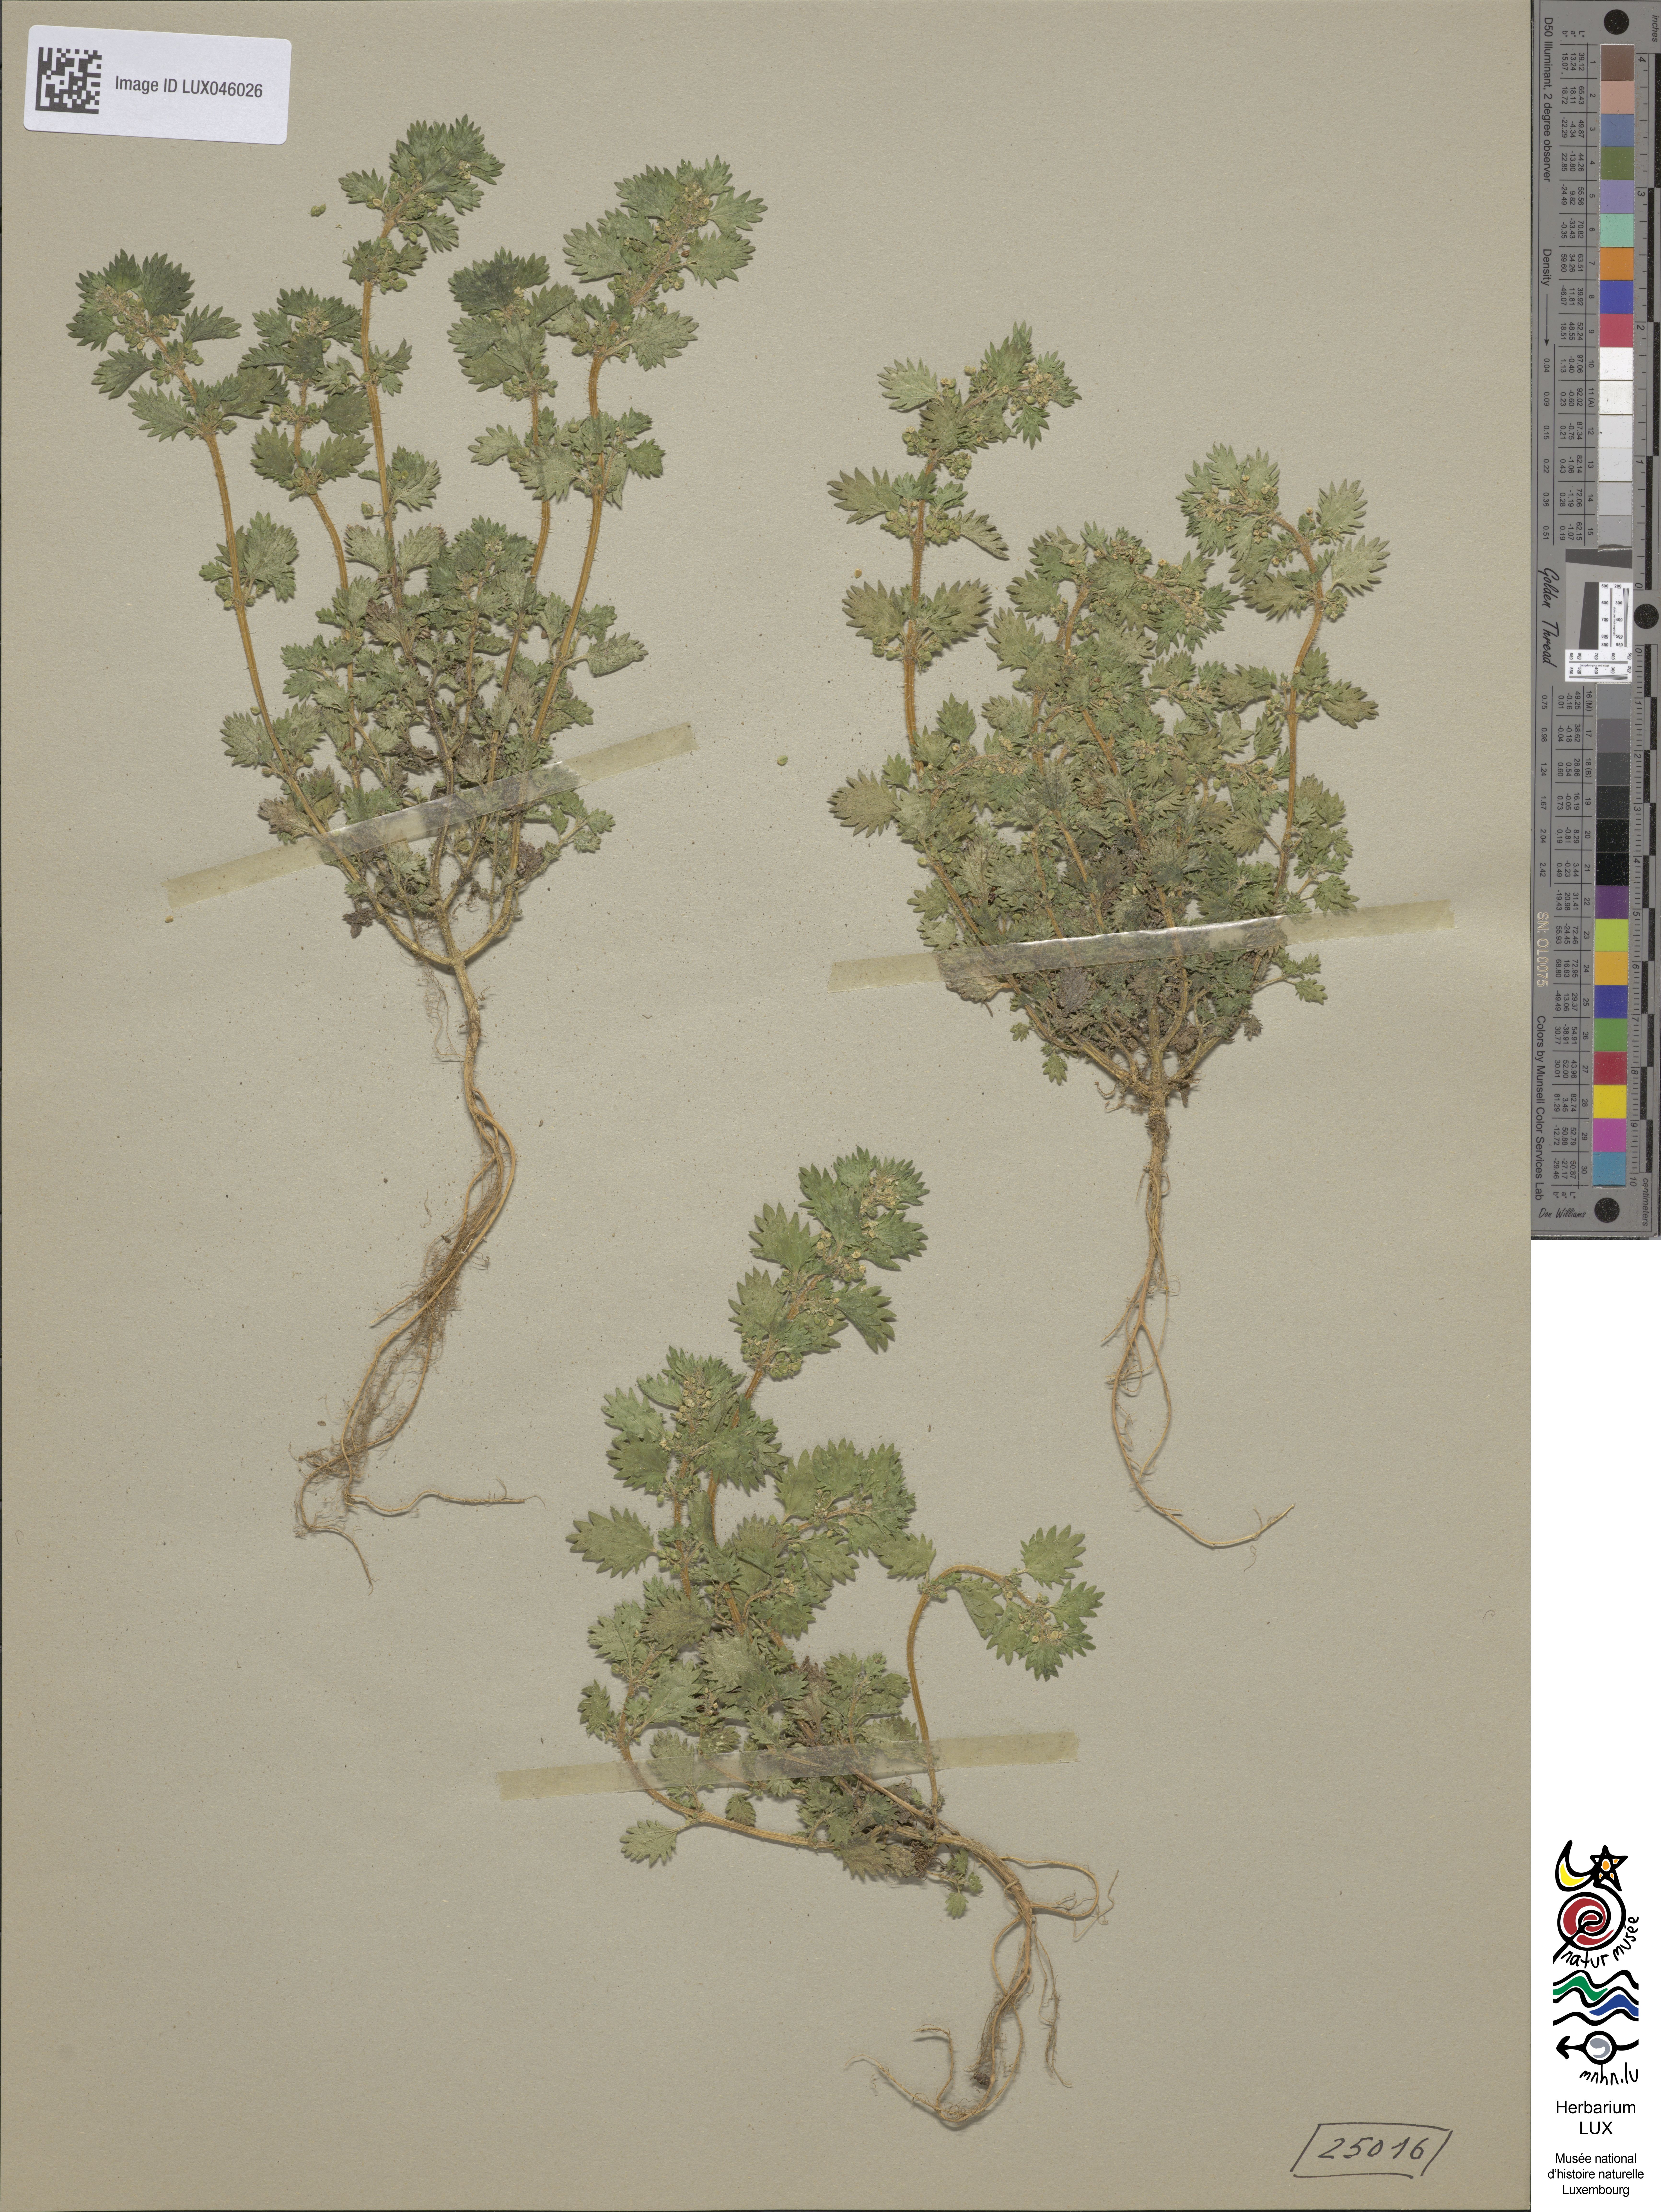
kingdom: Plantae
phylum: Tracheophyta
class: Magnoliopsida
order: Rosales
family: Urticaceae
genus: Urtica
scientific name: Urtica urens
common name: Dwarf nettle
